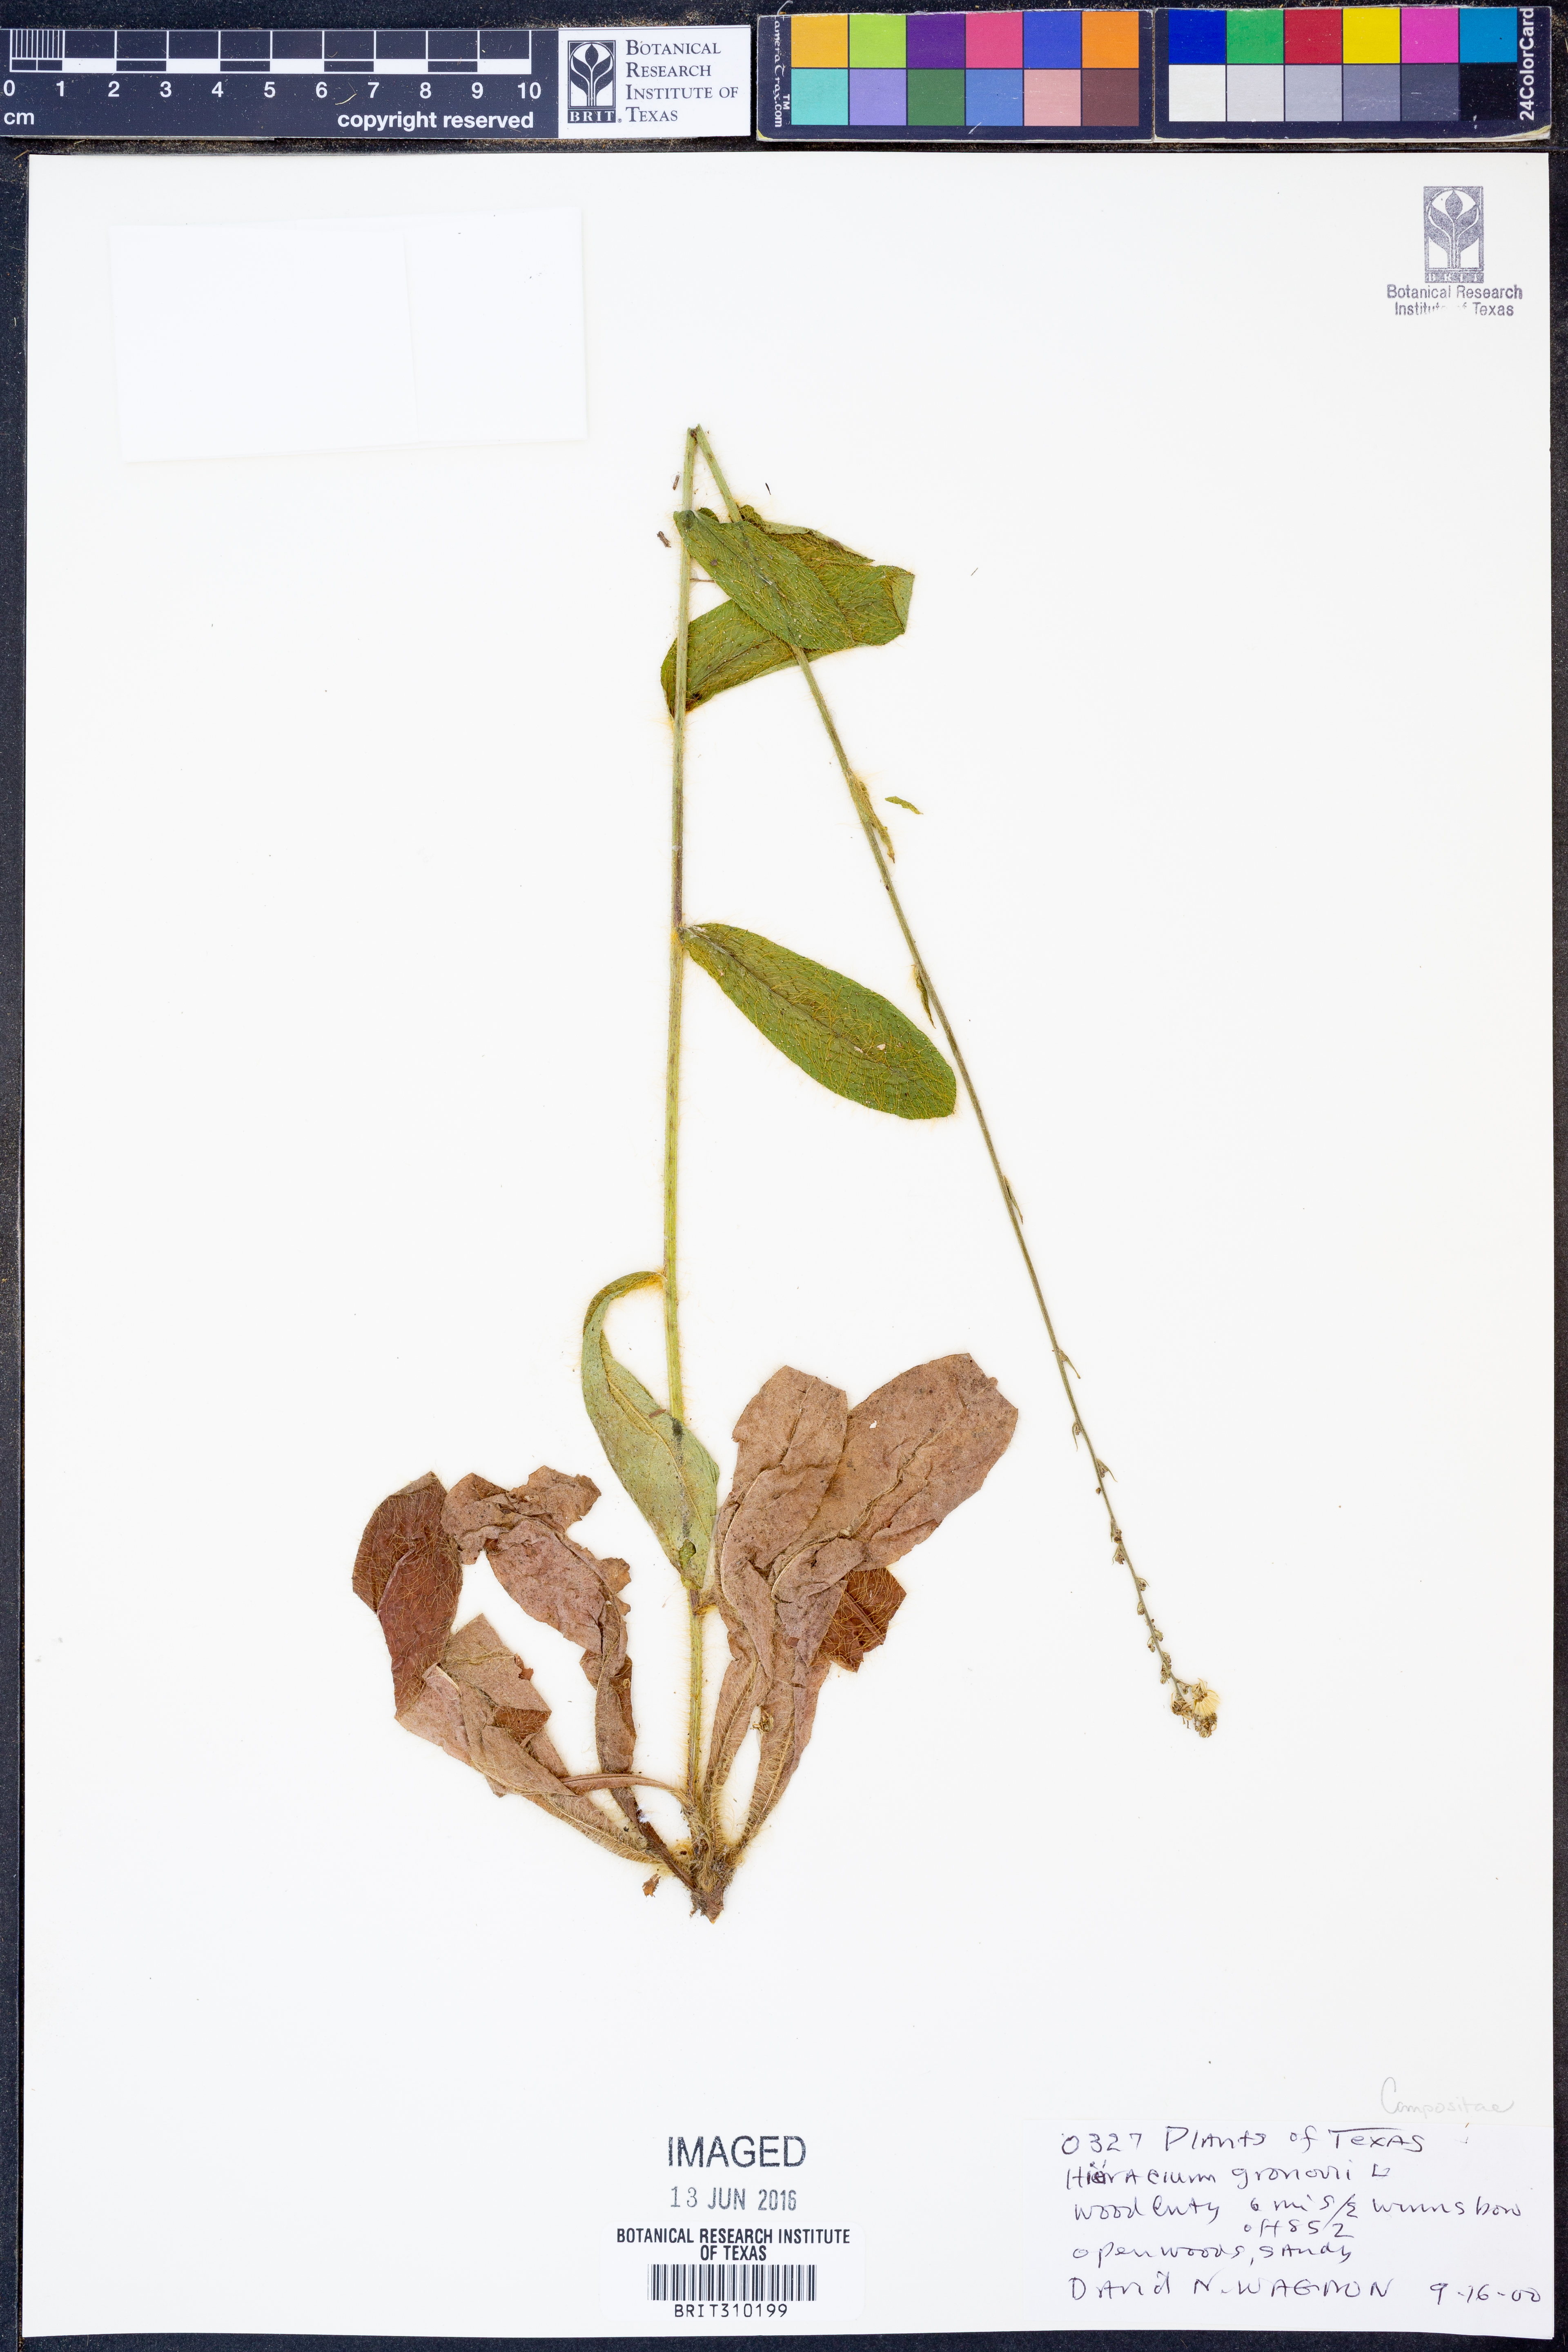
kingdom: Plantae
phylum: Tracheophyta
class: Magnoliopsida
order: Asterales
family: Asteraceae
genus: Hieracium
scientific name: Hieracium gronovii
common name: Beaked hawkweed
